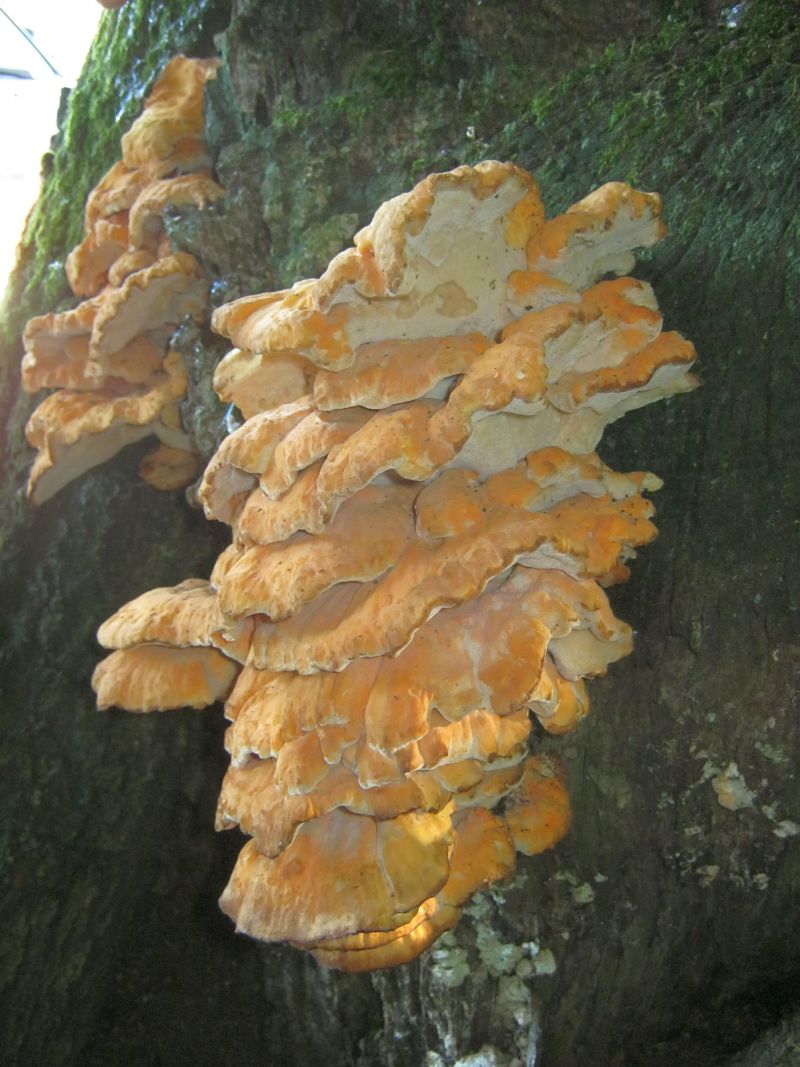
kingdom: Fungi
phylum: Basidiomycota
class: Agaricomycetes
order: Polyporales
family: Laetiporaceae
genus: Laetiporus
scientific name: Laetiporus sulphureus
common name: svovlporesvamp
